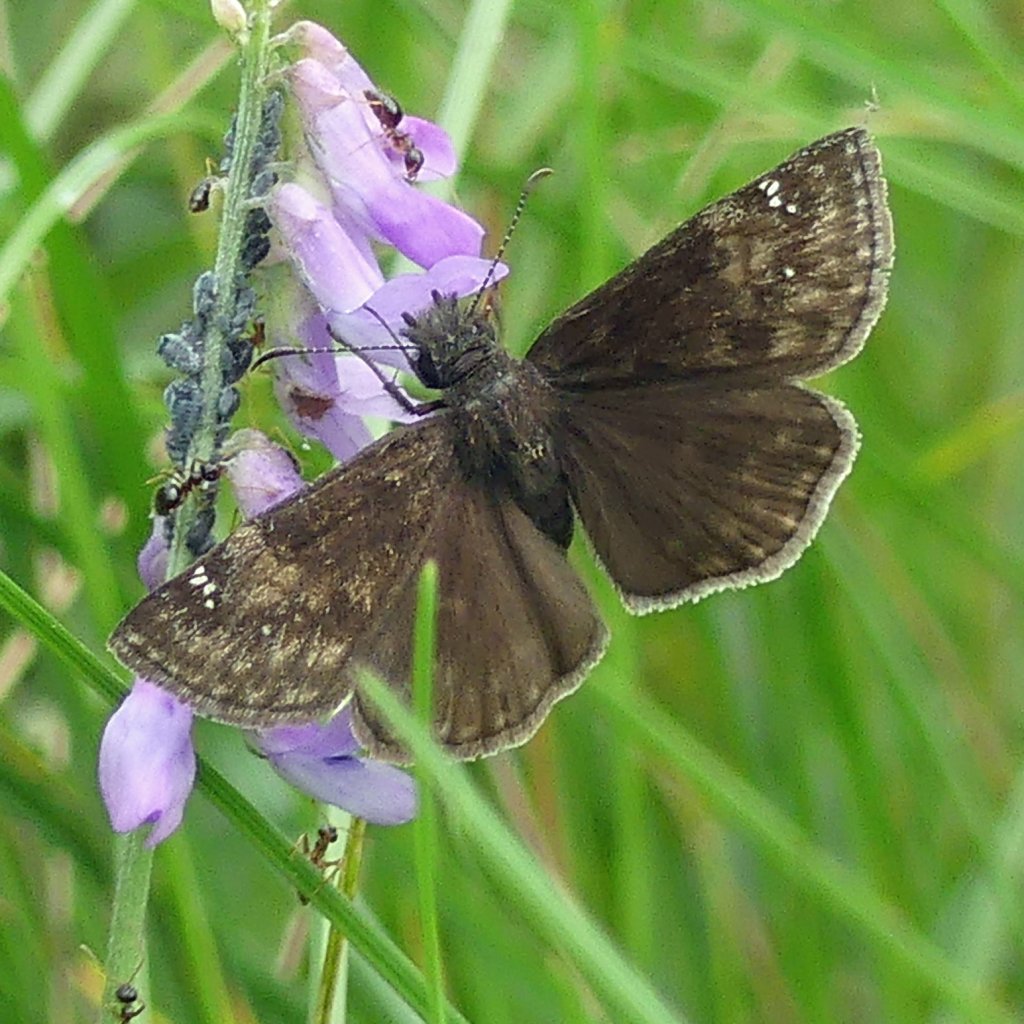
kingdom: Animalia
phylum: Arthropoda
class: Insecta
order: Lepidoptera
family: Hesperiidae
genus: Gesta
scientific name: Gesta
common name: Wild Indigo Duskywing
